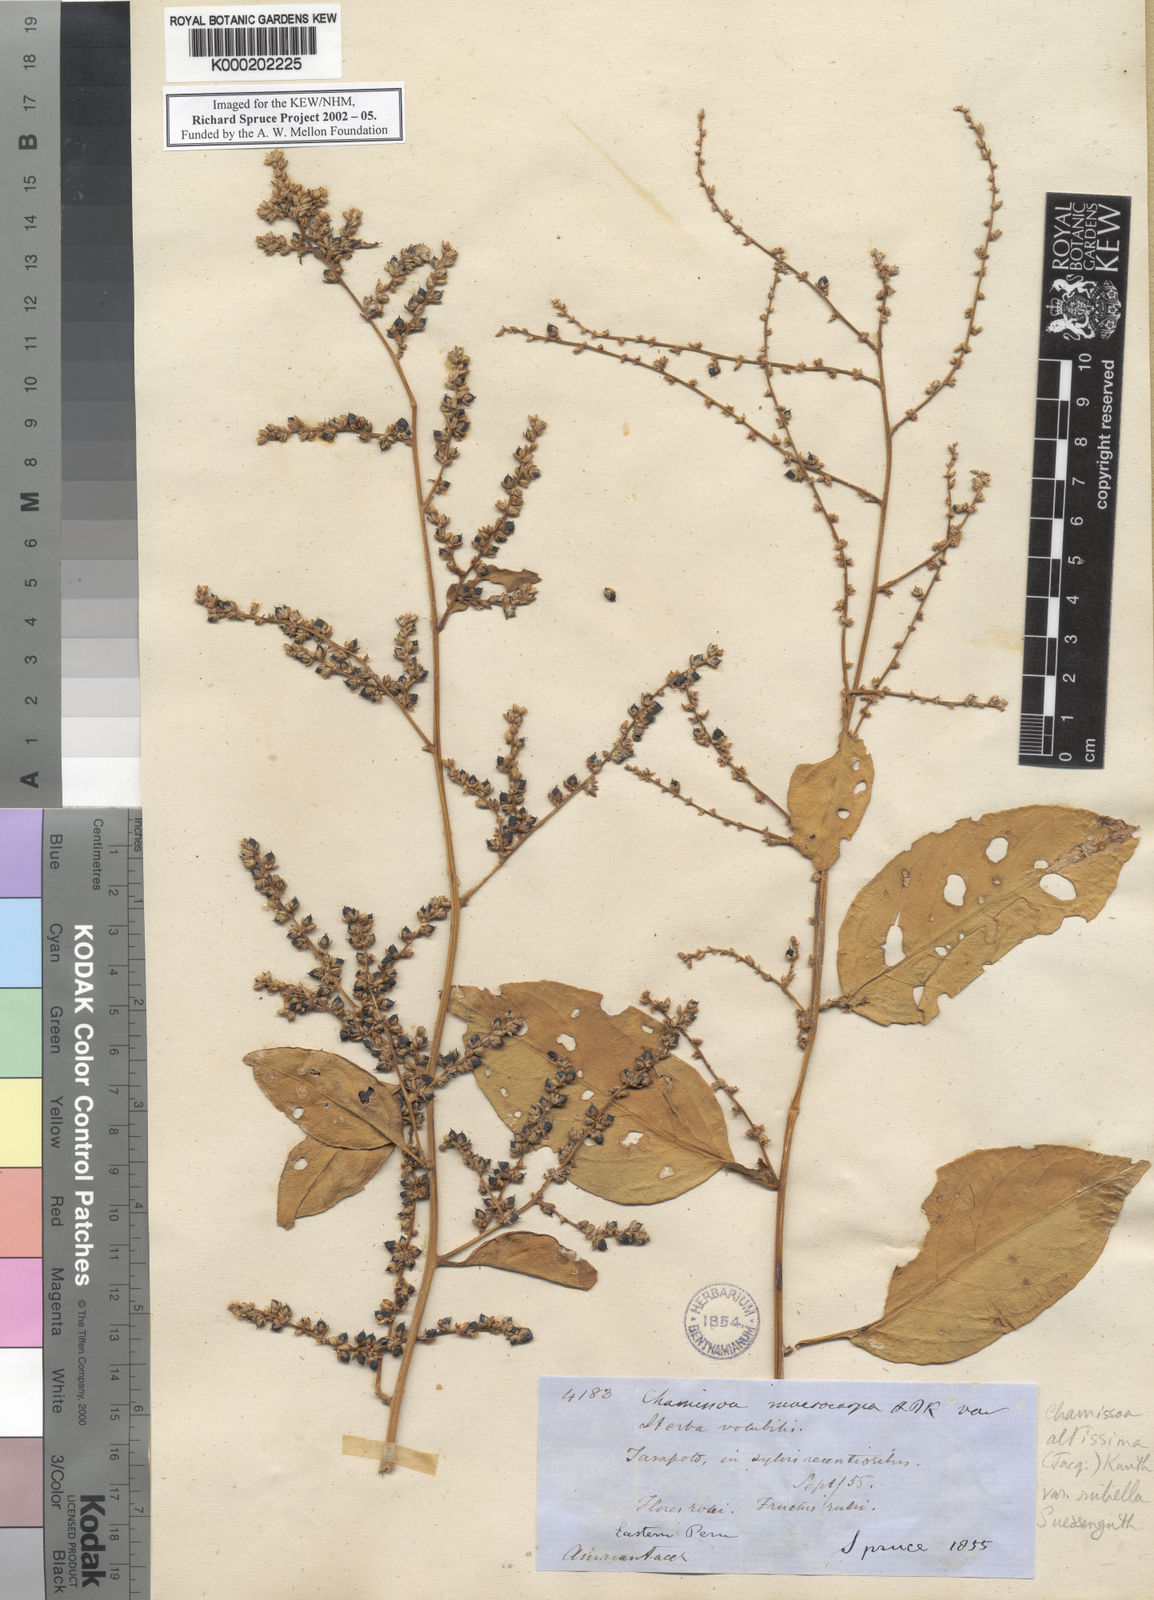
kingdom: Plantae
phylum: Tracheophyta
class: Magnoliopsida
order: Caryophyllales
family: Amaranthaceae
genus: Chamissoa
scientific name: Chamissoa altissima
